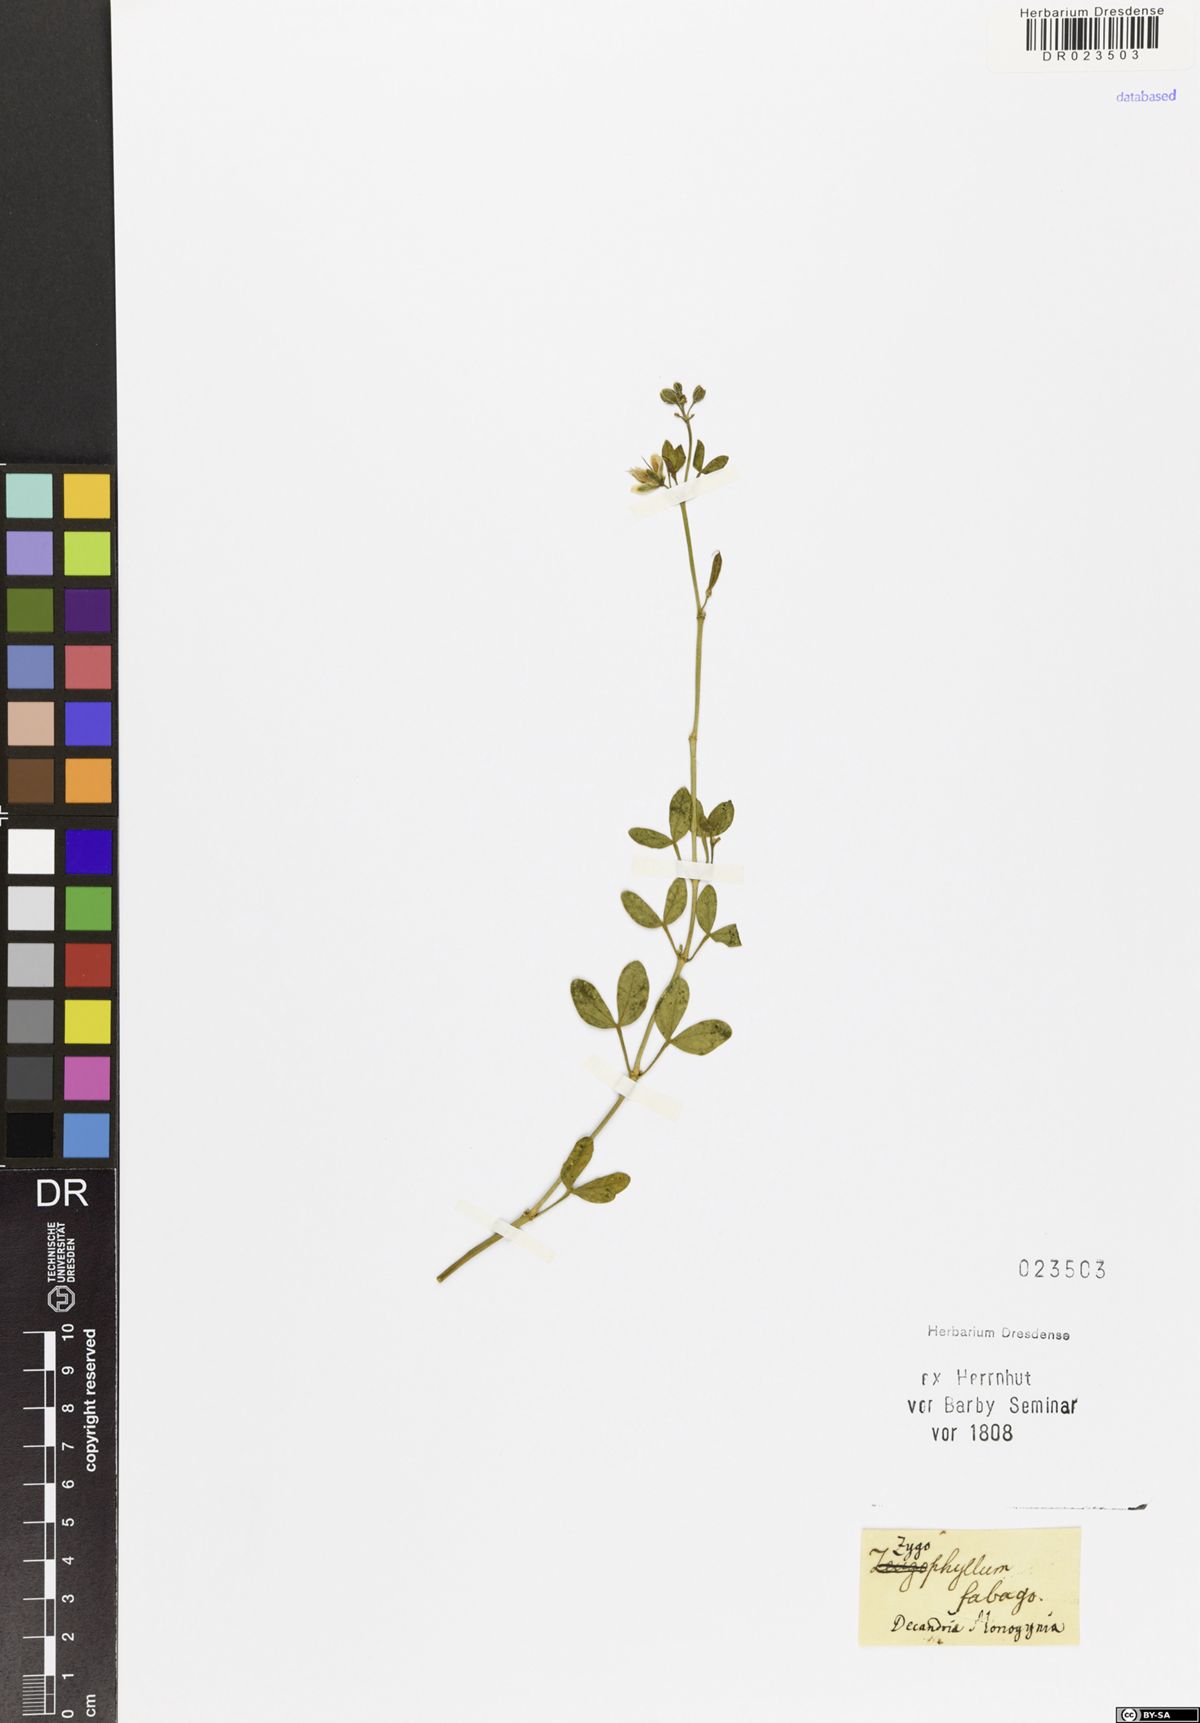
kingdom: Plantae
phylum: Tracheophyta
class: Magnoliopsida
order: Zygophyllales
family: Zygophyllaceae
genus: Zygophyllum
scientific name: Zygophyllum fabago
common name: Syrian beancaper
